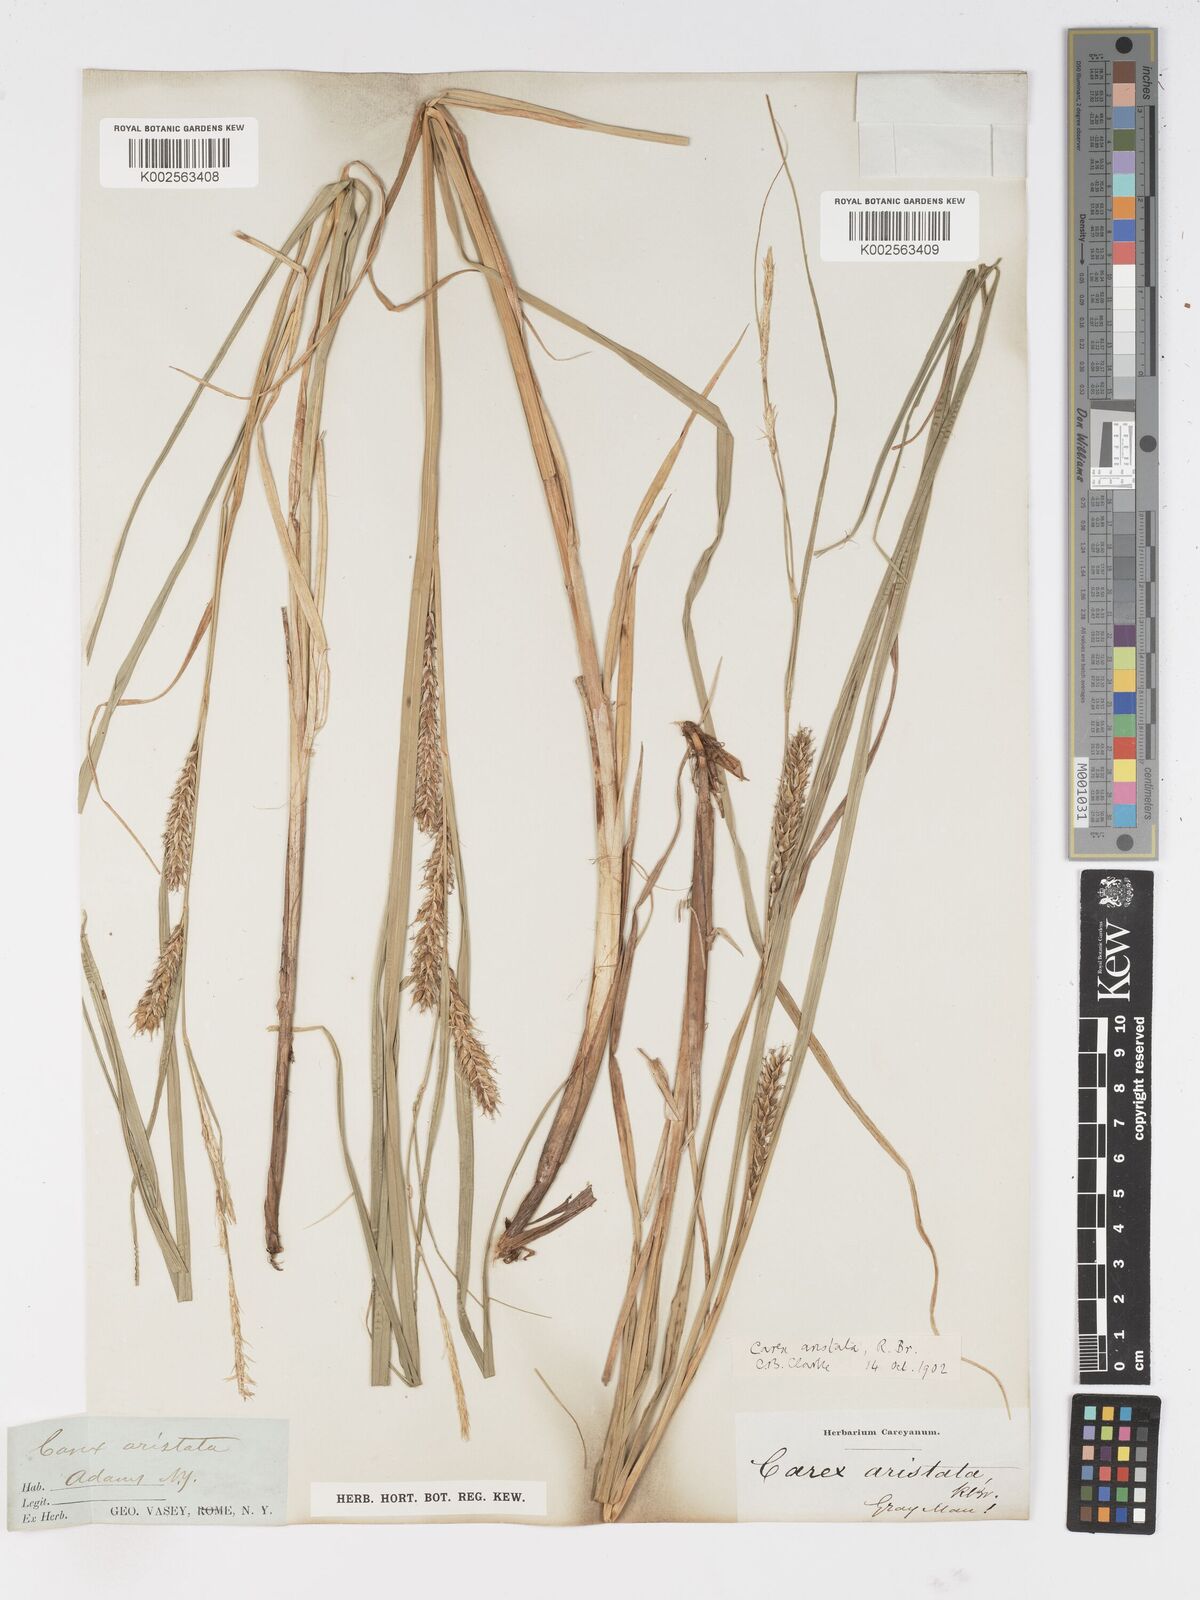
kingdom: Plantae
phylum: Tracheophyta
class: Liliopsida
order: Poales
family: Cyperaceae
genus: Carex
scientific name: Carex atherodes
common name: Wheat sedge
